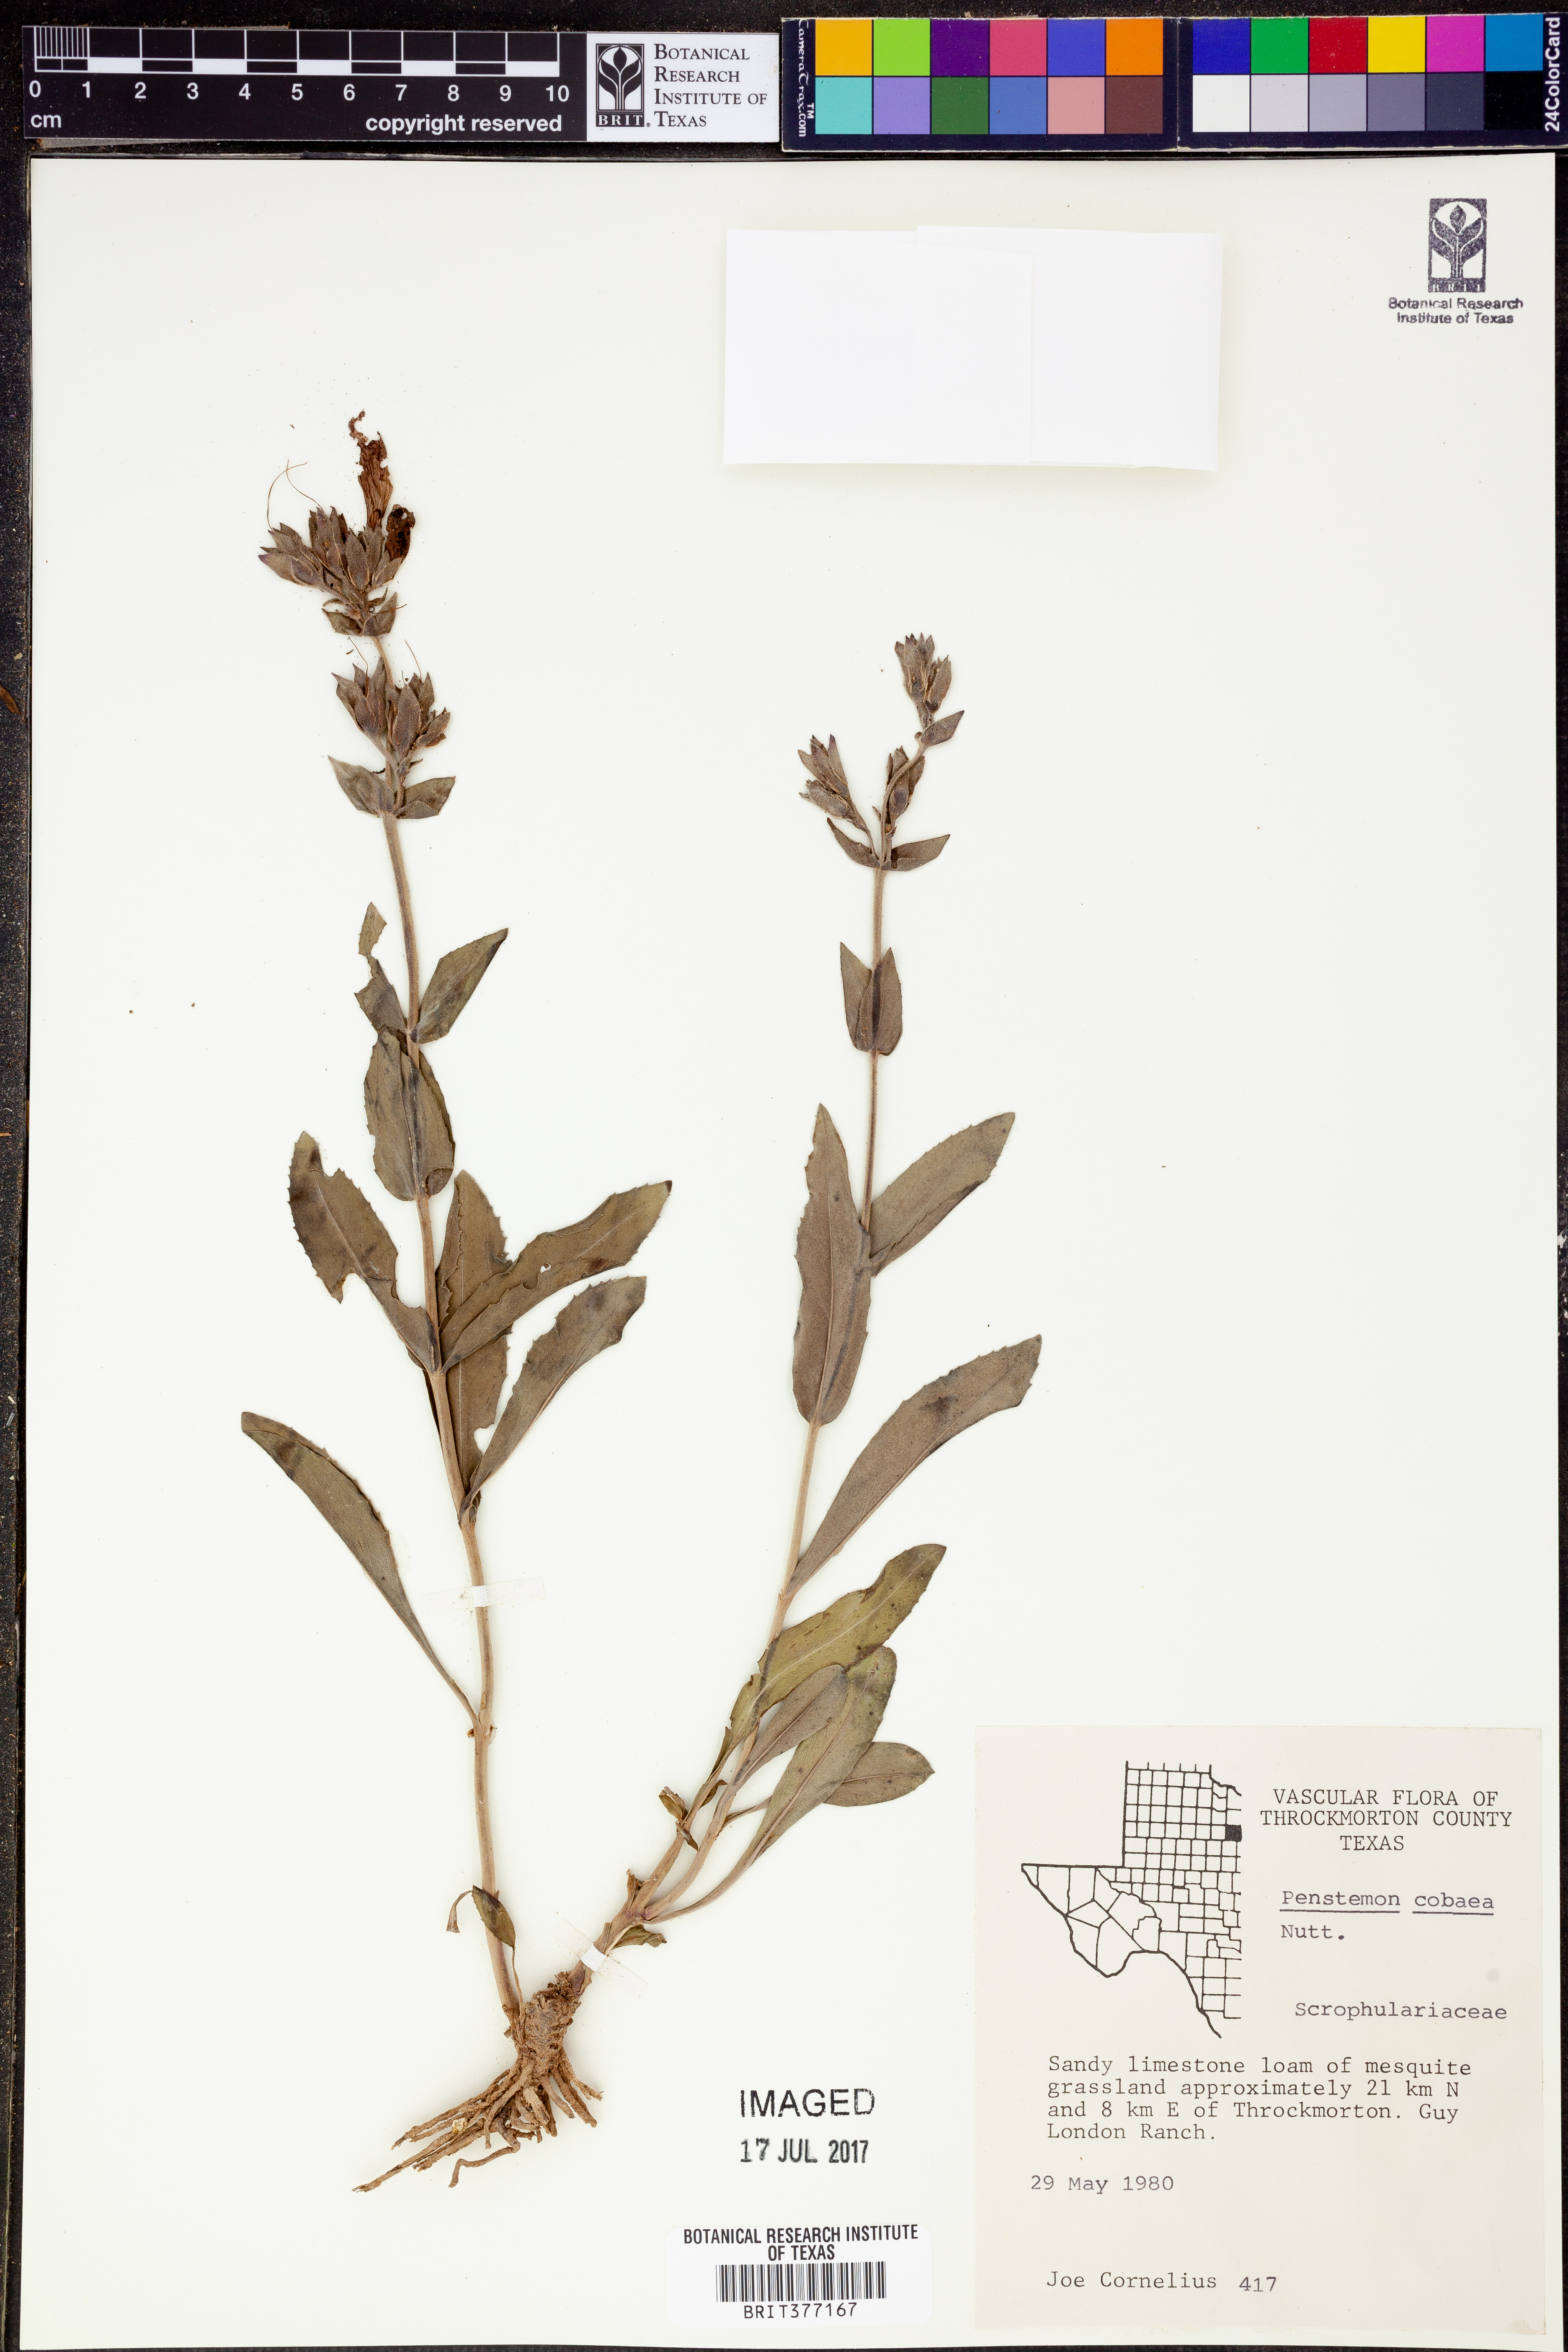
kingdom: Plantae
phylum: Tracheophyta
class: Magnoliopsida
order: Lamiales
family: Plantaginaceae
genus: Penstemon
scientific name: Penstemon cobaea
